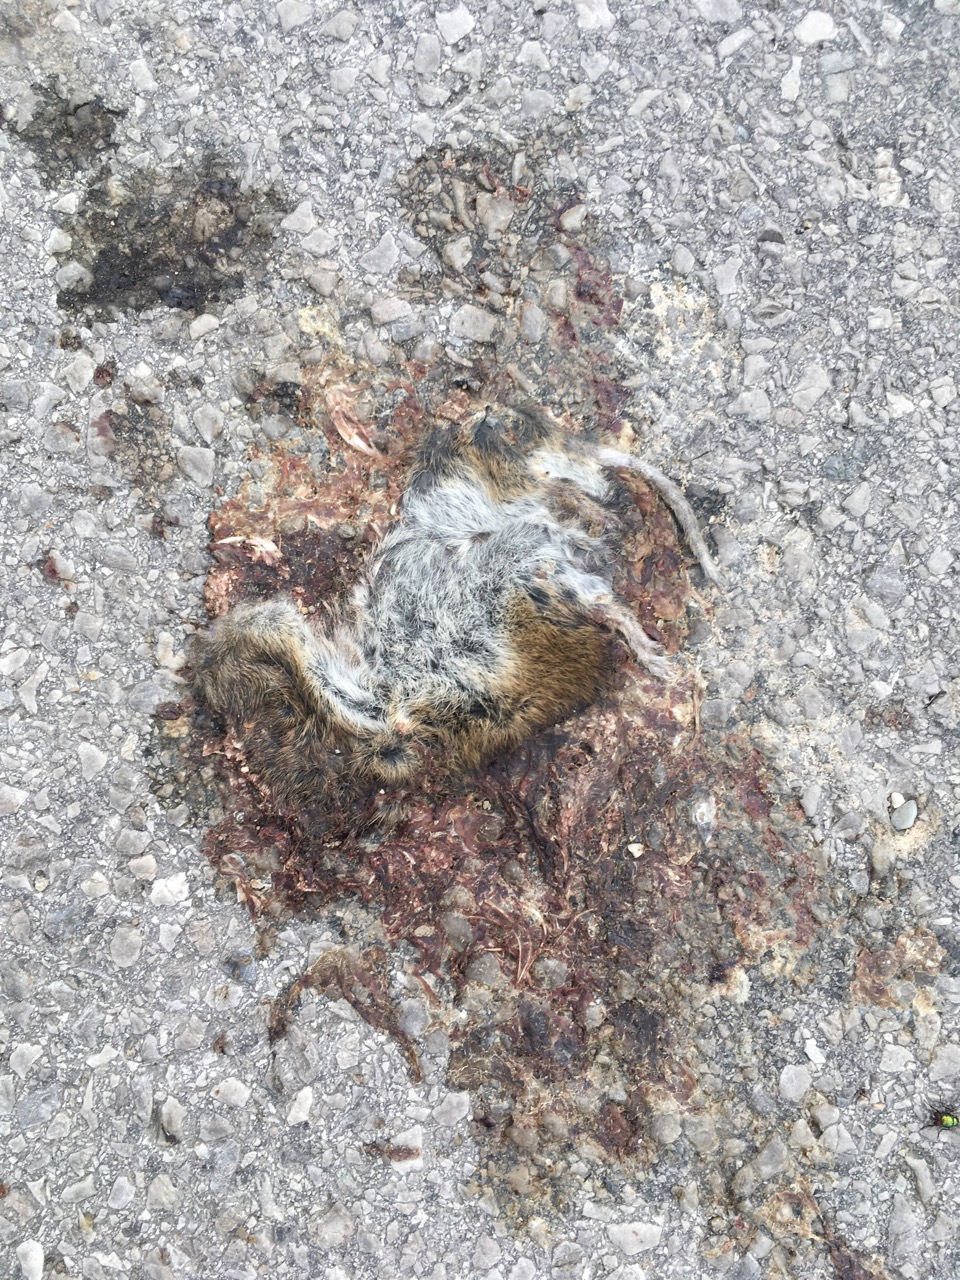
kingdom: Animalia
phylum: Chordata
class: Mammalia
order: Rodentia
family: Cricetidae
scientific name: Cricetidae
